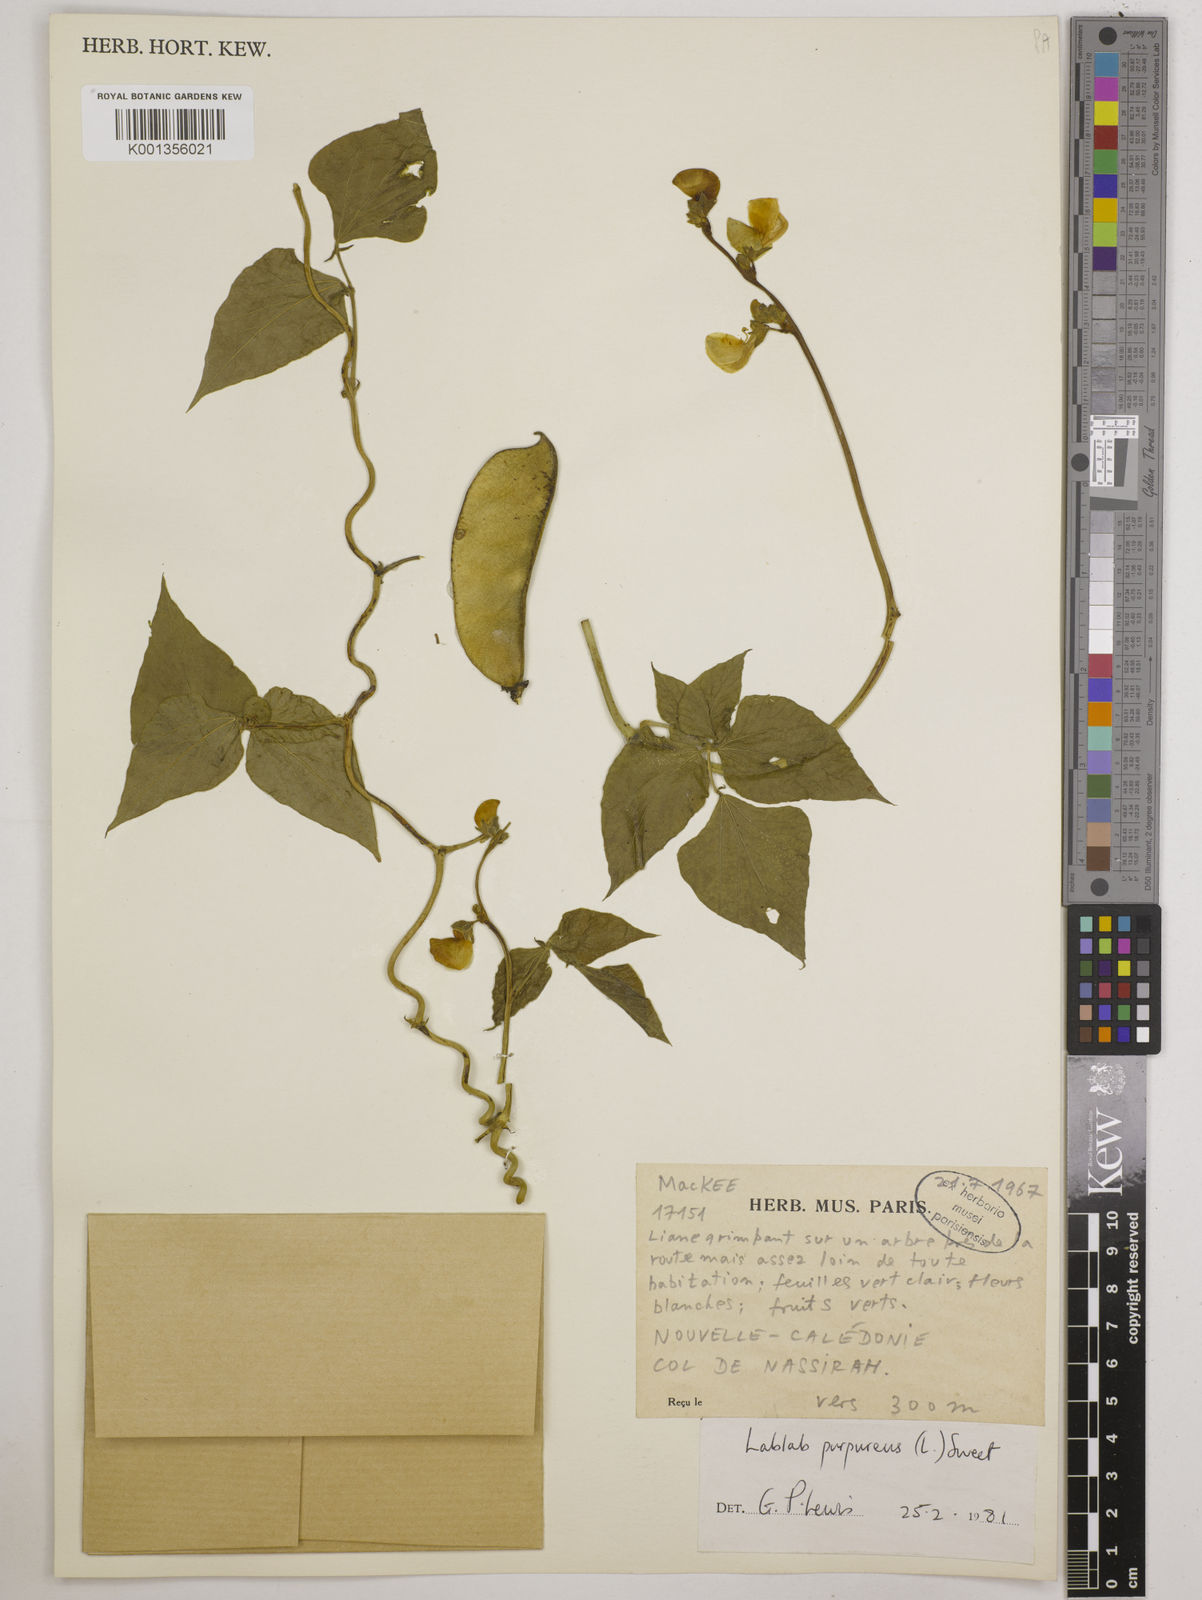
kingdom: Plantae
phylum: Tracheophyta
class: Magnoliopsida
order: Fabales
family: Fabaceae
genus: Lablab
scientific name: Lablab purpureus
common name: Lablab-bean
